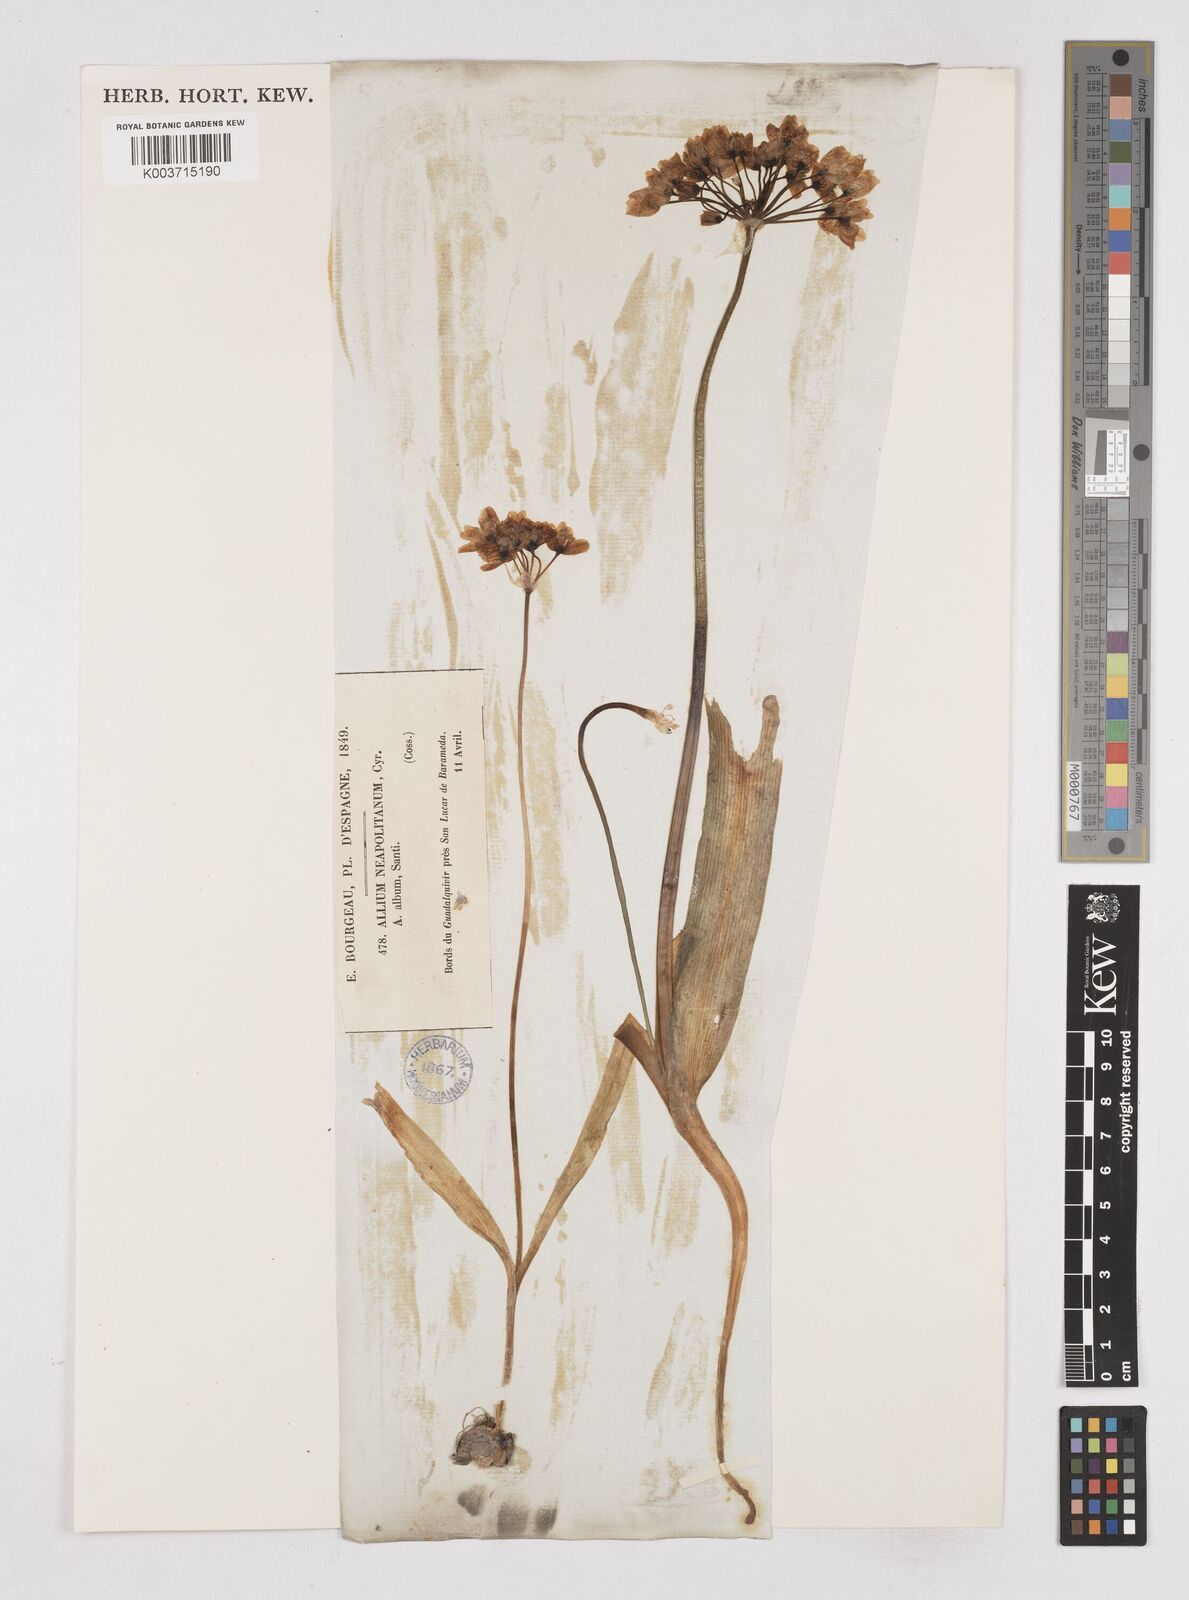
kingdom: Plantae
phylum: Tracheophyta
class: Liliopsida
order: Asparagales
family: Amaryllidaceae
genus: Allium
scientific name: Allium neapolitanum
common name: Neapolitan garlic
